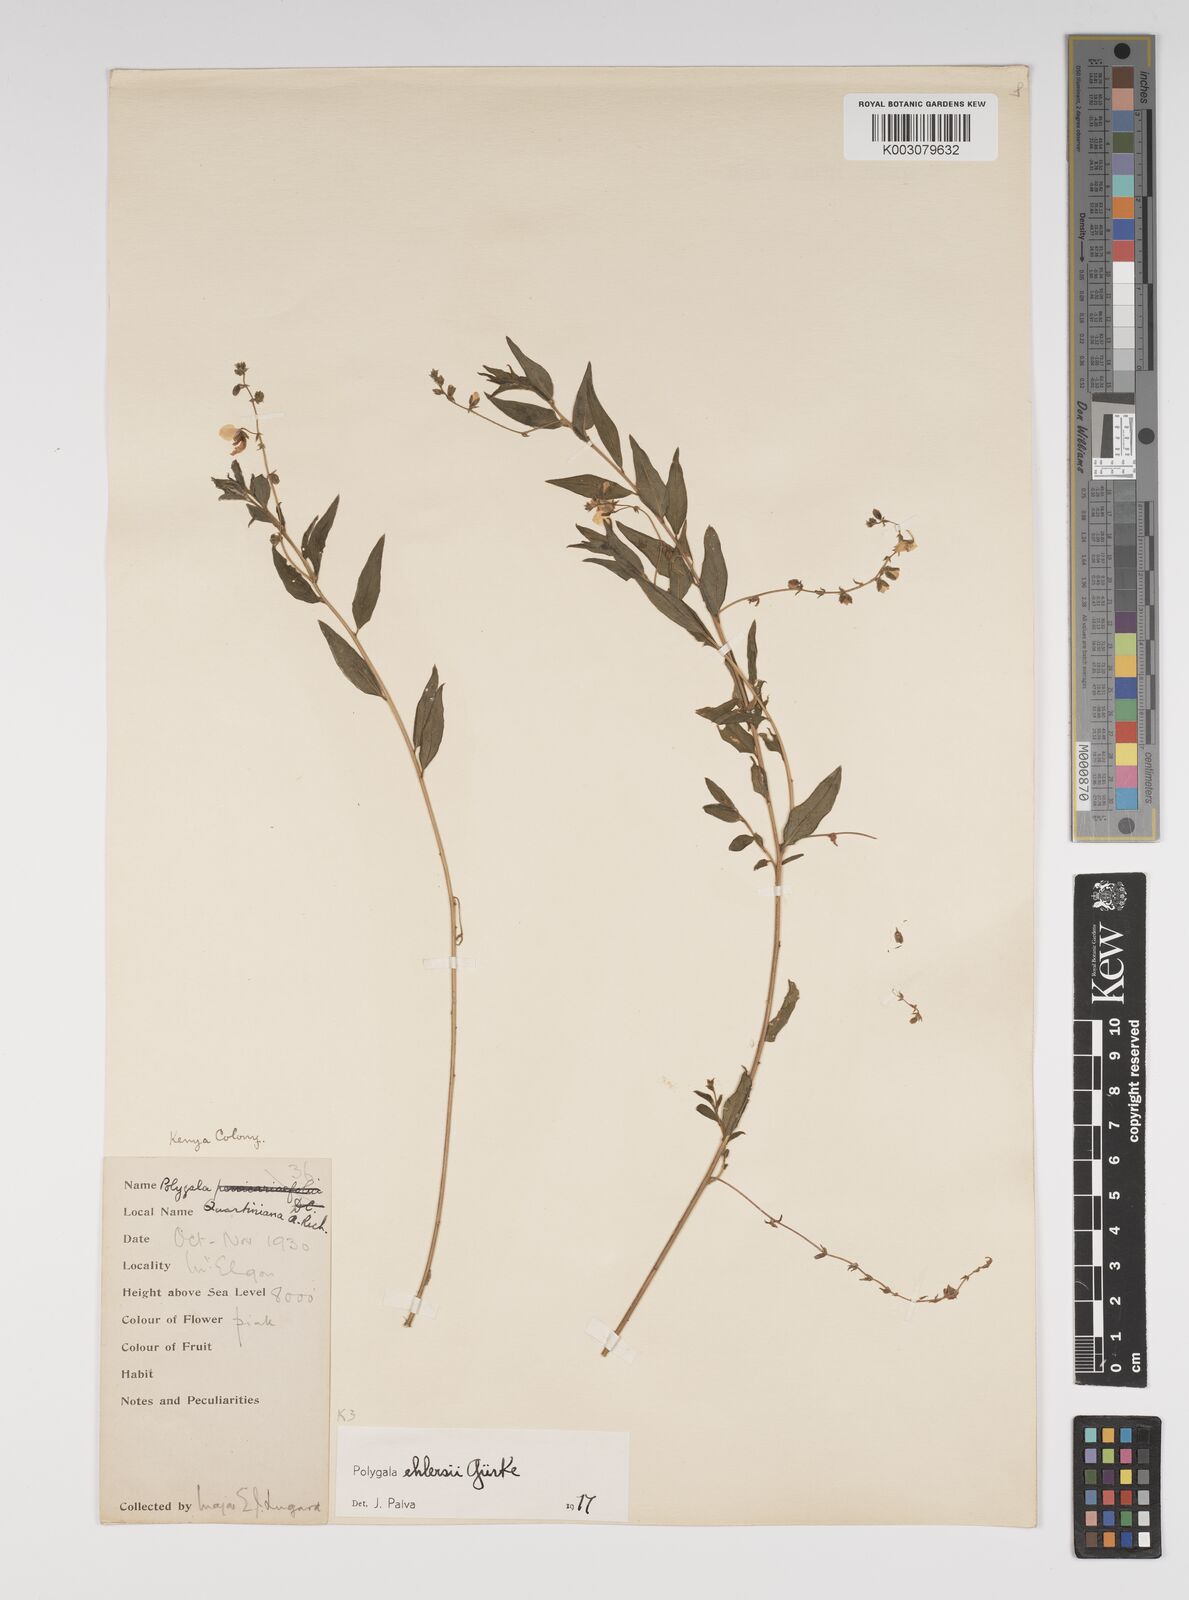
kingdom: Plantae
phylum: Tracheophyta
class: Magnoliopsida
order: Fabales
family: Polygalaceae
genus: Polygala
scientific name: Polygala ehlersii
